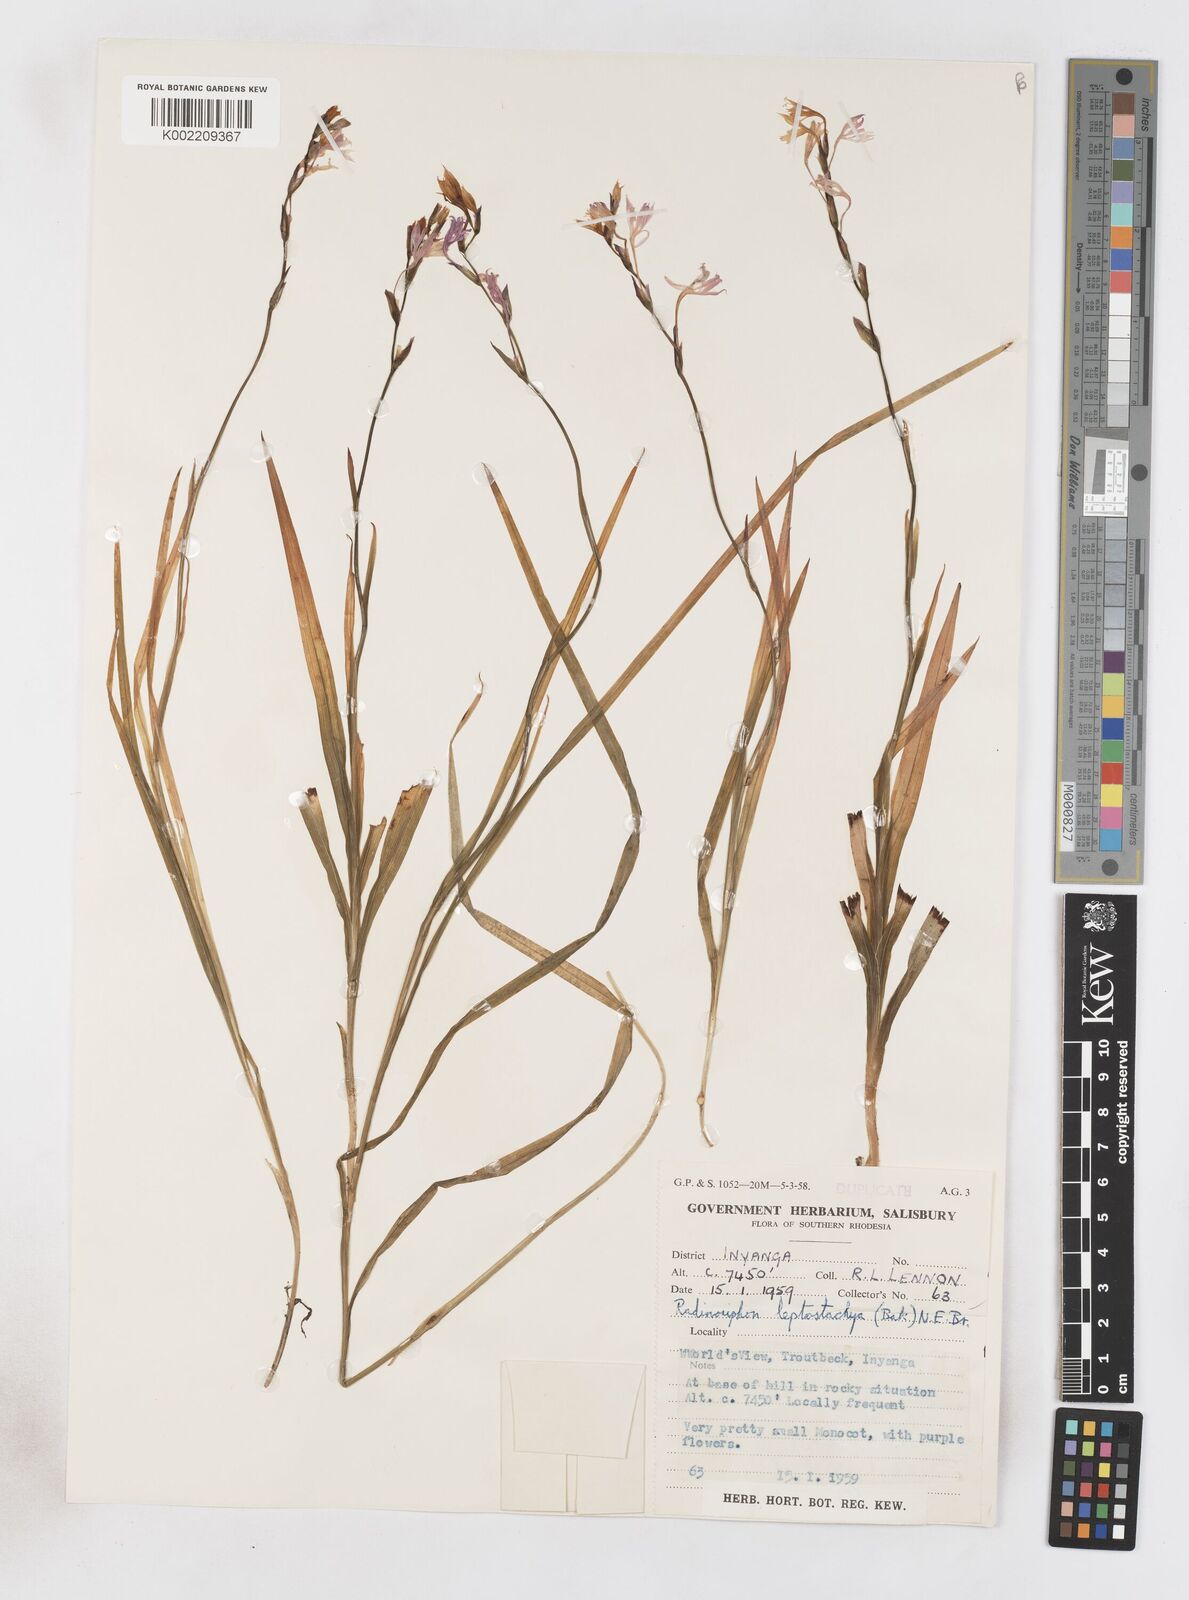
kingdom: Plantae
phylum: Tracheophyta
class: Liliopsida
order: Asparagales
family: Iridaceae
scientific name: Iridaceae
